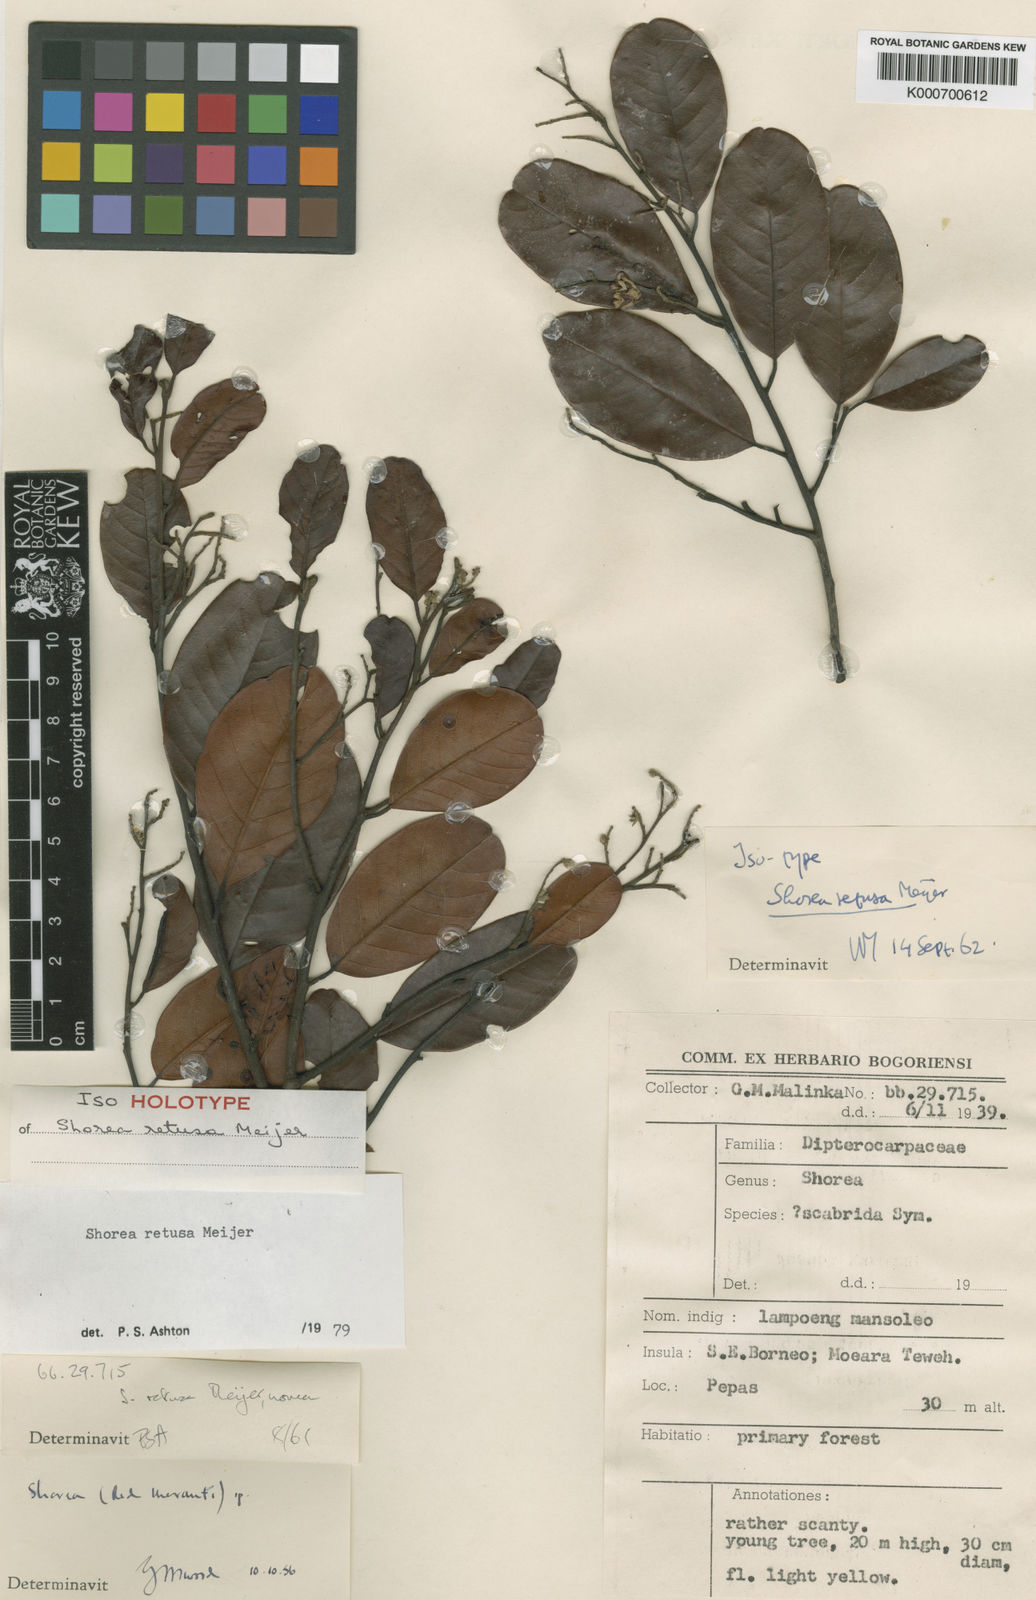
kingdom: Plantae
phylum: Tracheophyta
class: Magnoliopsida
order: Malvales
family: Dipterocarpaceae
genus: Shorea
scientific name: Shorea retusa
